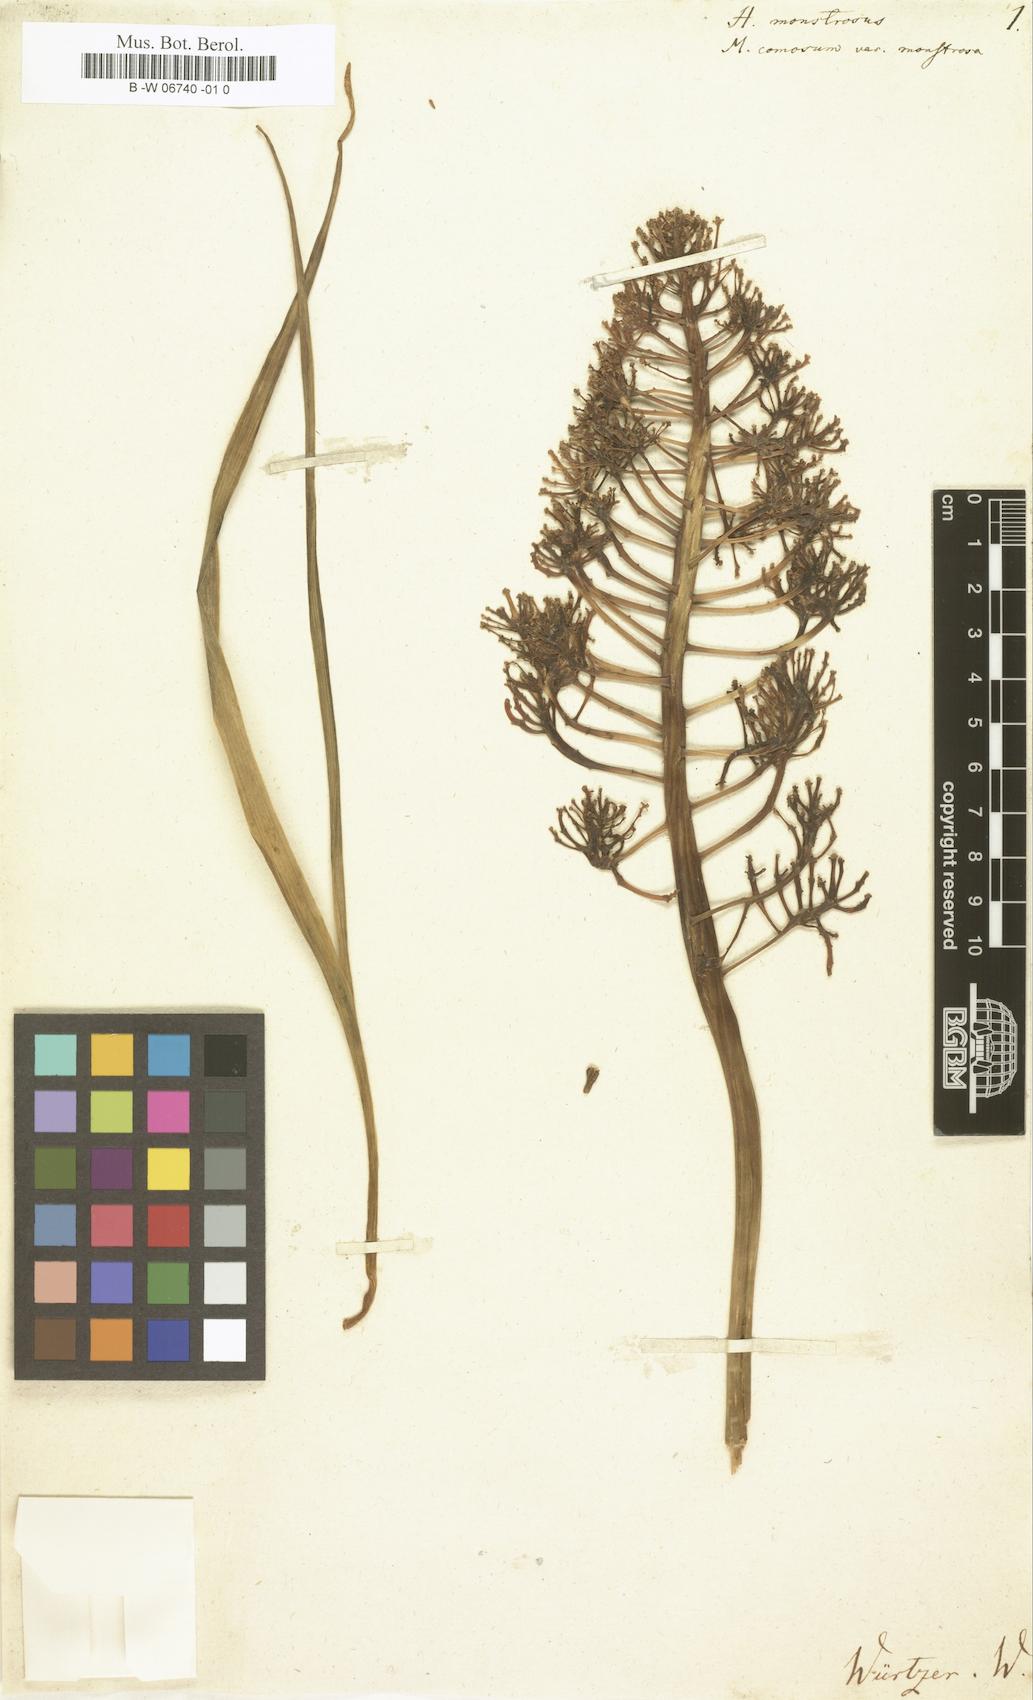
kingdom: Plantae
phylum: Tracheophyta
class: Liliopsida
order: Asparagales
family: Asparagaceae
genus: Muscari
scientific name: Muscari comosum
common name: Tassel hyacinth
